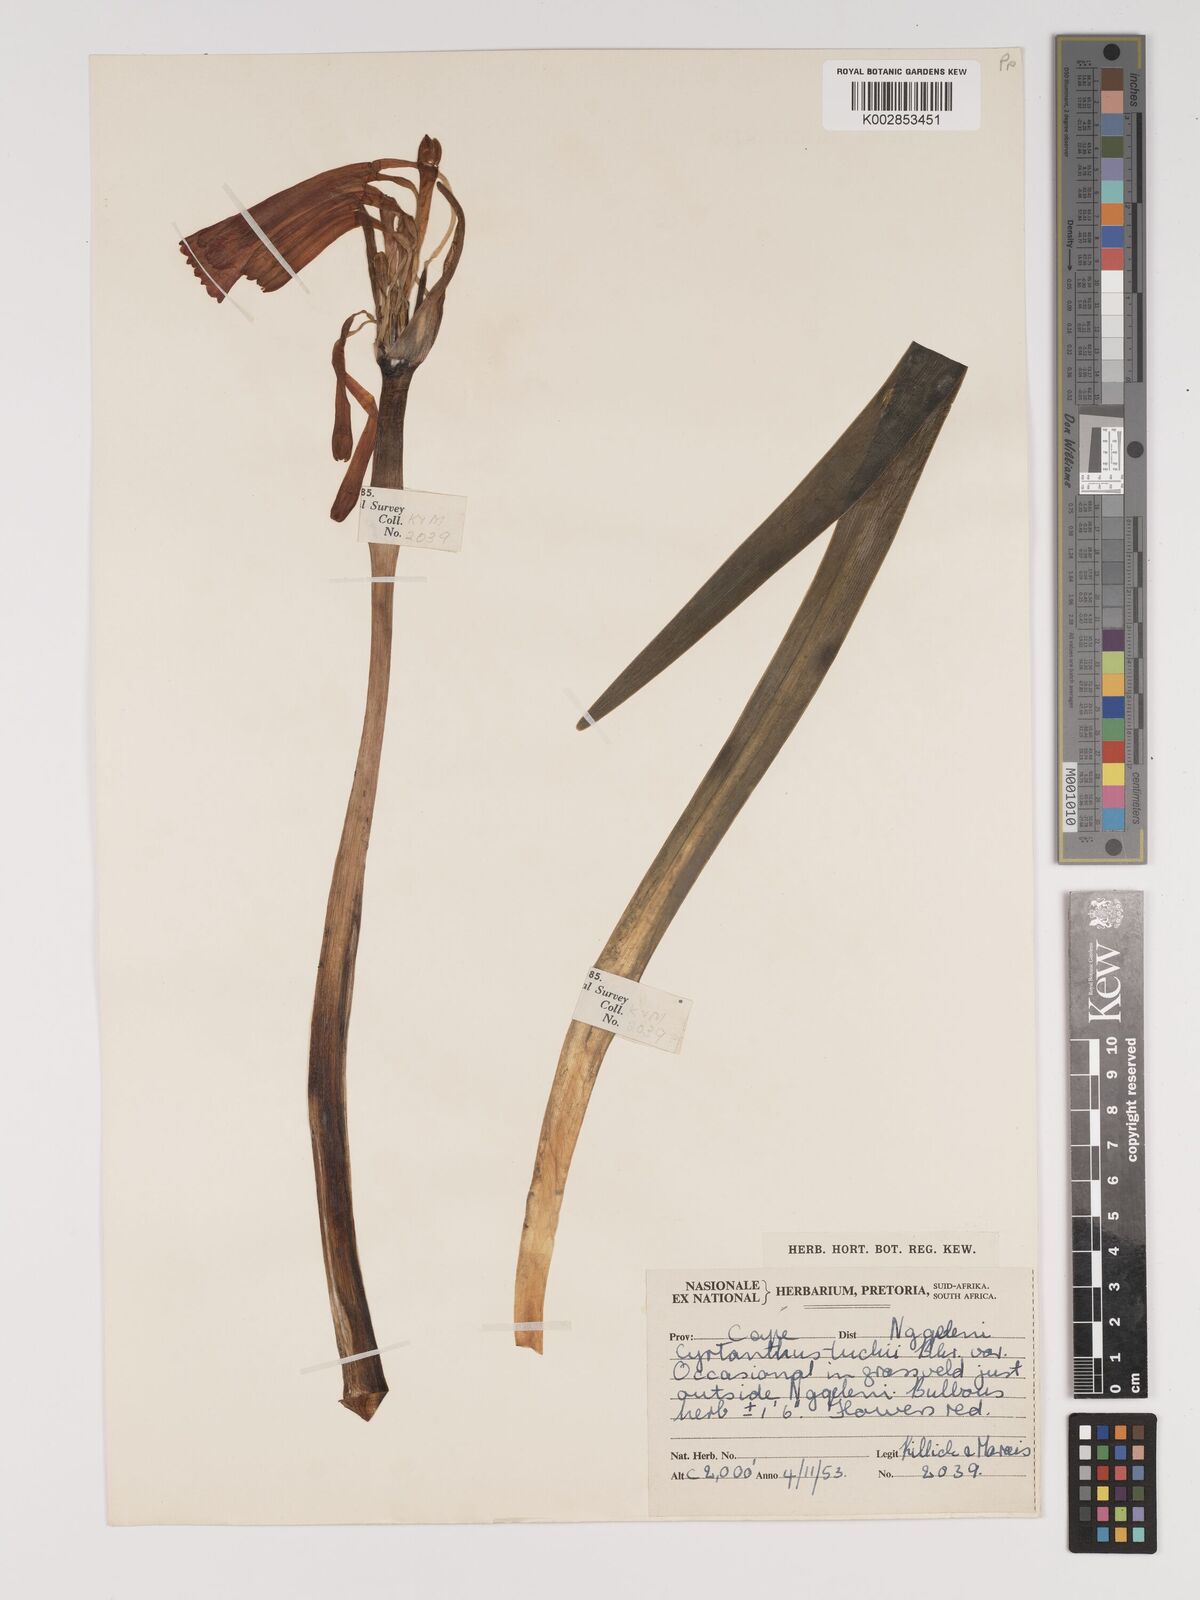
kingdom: Plantae
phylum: Tracheophyta
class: Liliopsida
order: Asparagales
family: Amaryllidaceae
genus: Cyrtanthus
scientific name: Cyrtanthus tuckii
